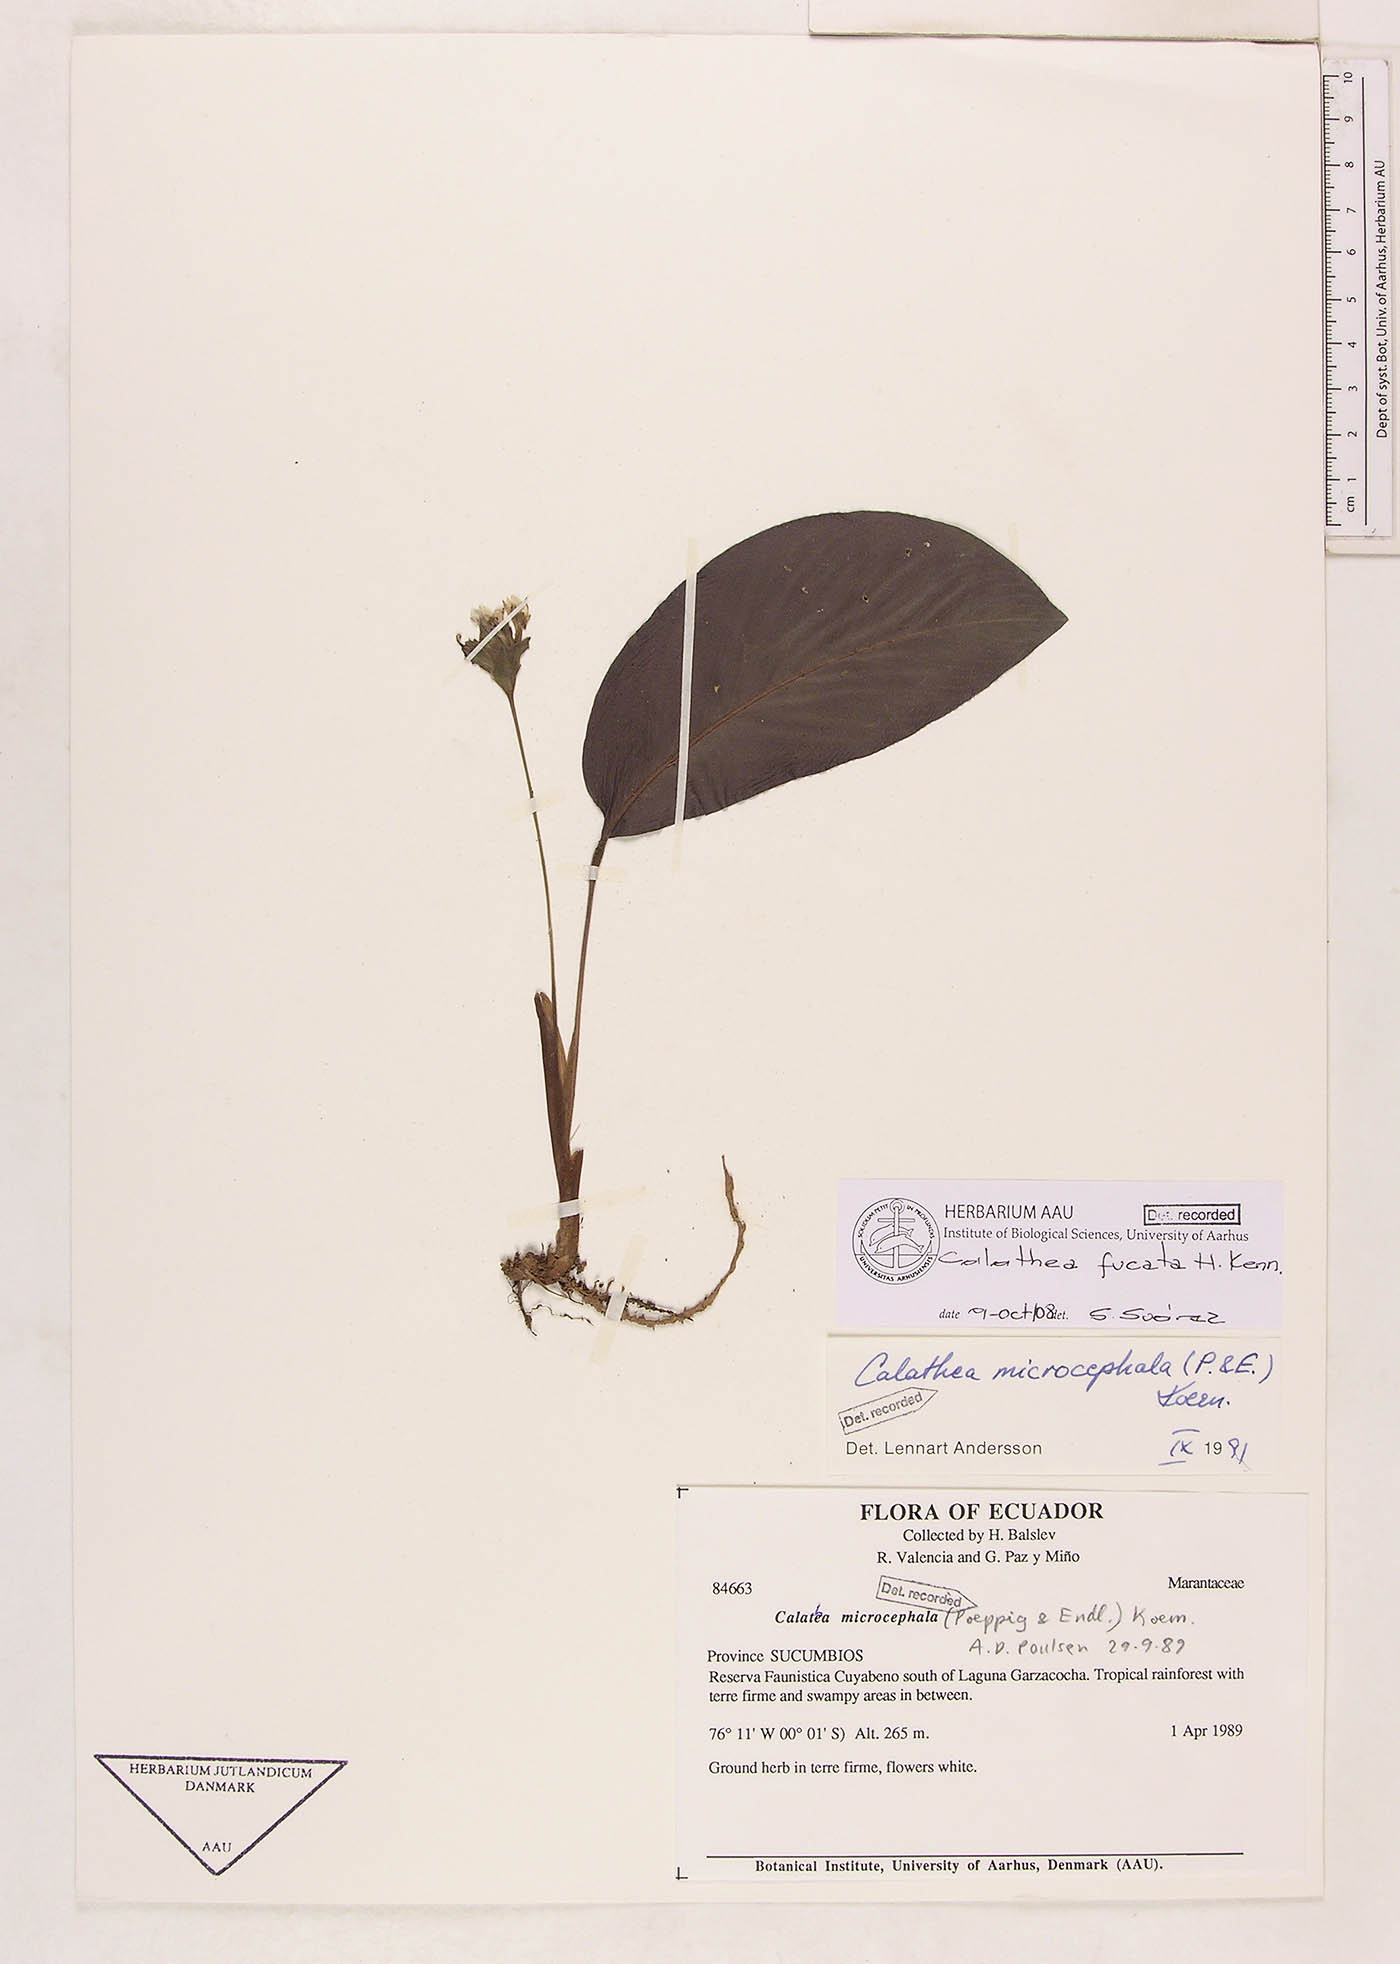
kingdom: Plantae
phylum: Tracheophyta
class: Liliopsida
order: Zingiberales
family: Marantaceae
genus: Goeppertia
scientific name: Goeppertia fucata
